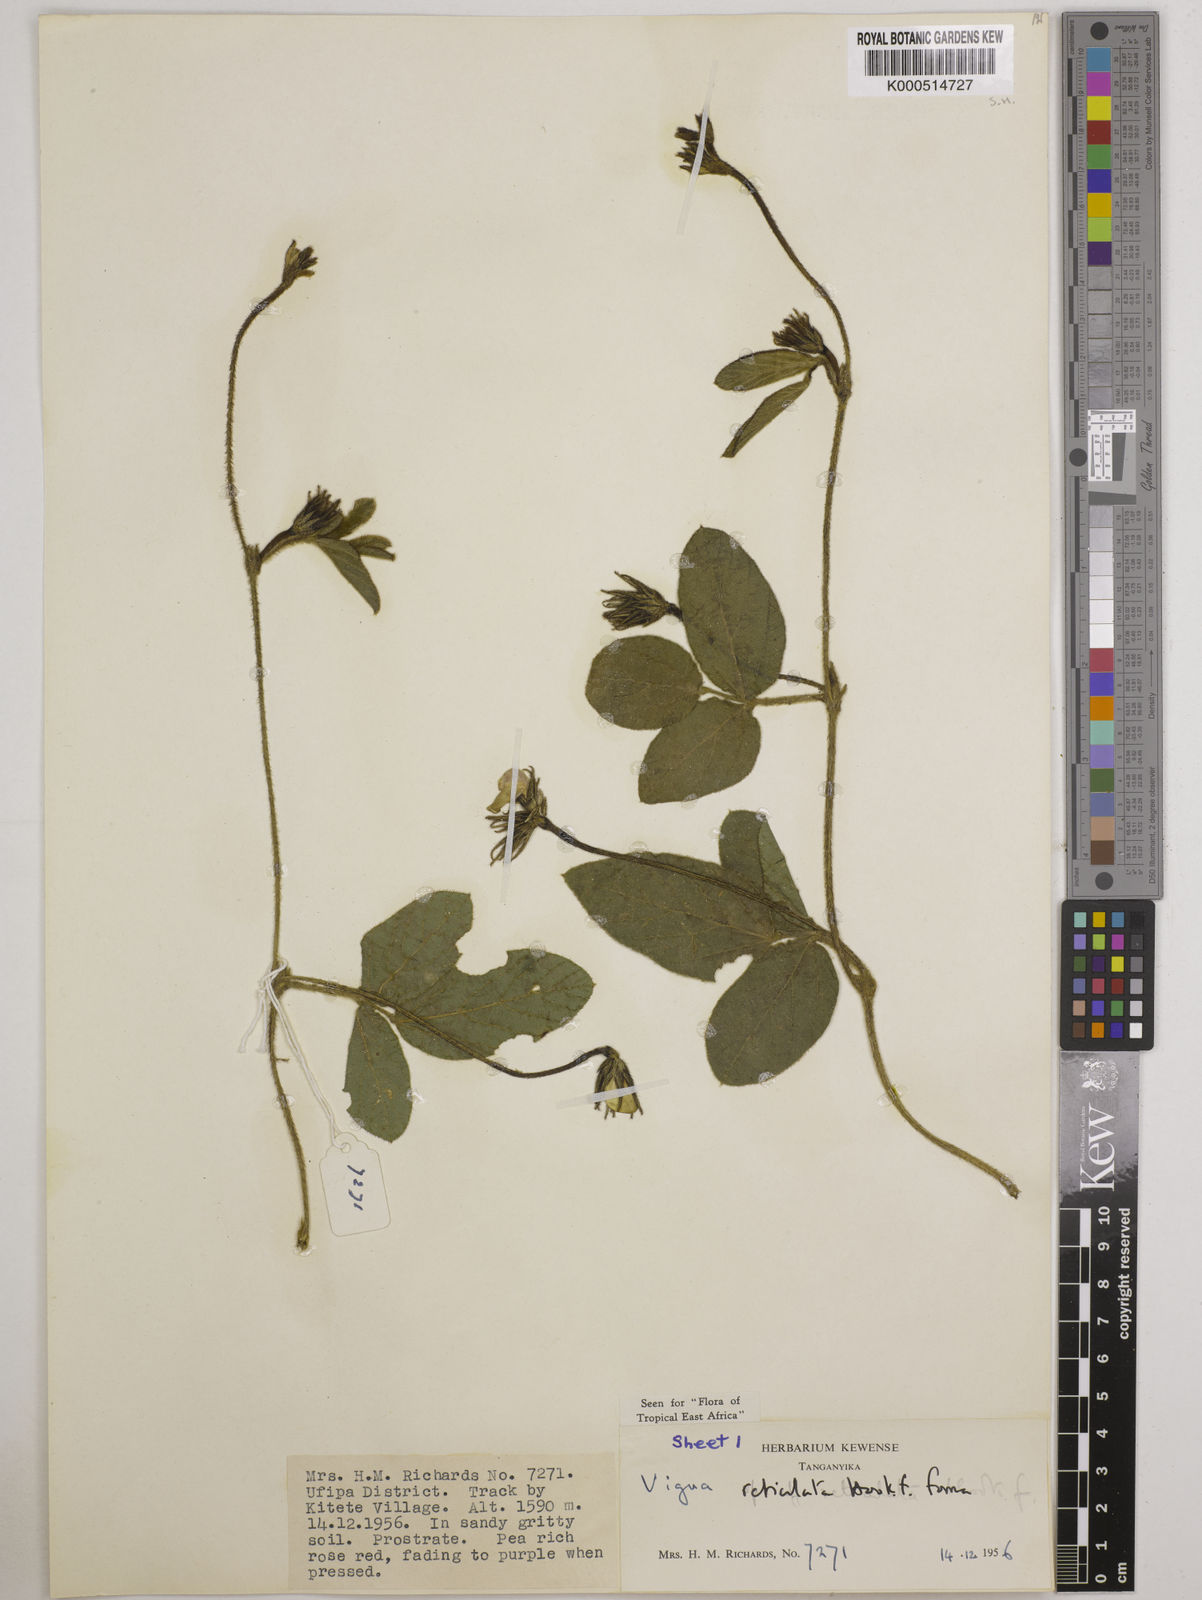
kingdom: Plantae
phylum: Tracheophyta
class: Magnoliopsida
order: Fabales
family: Fabaceae
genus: Vigna
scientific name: Vigna reticulata
